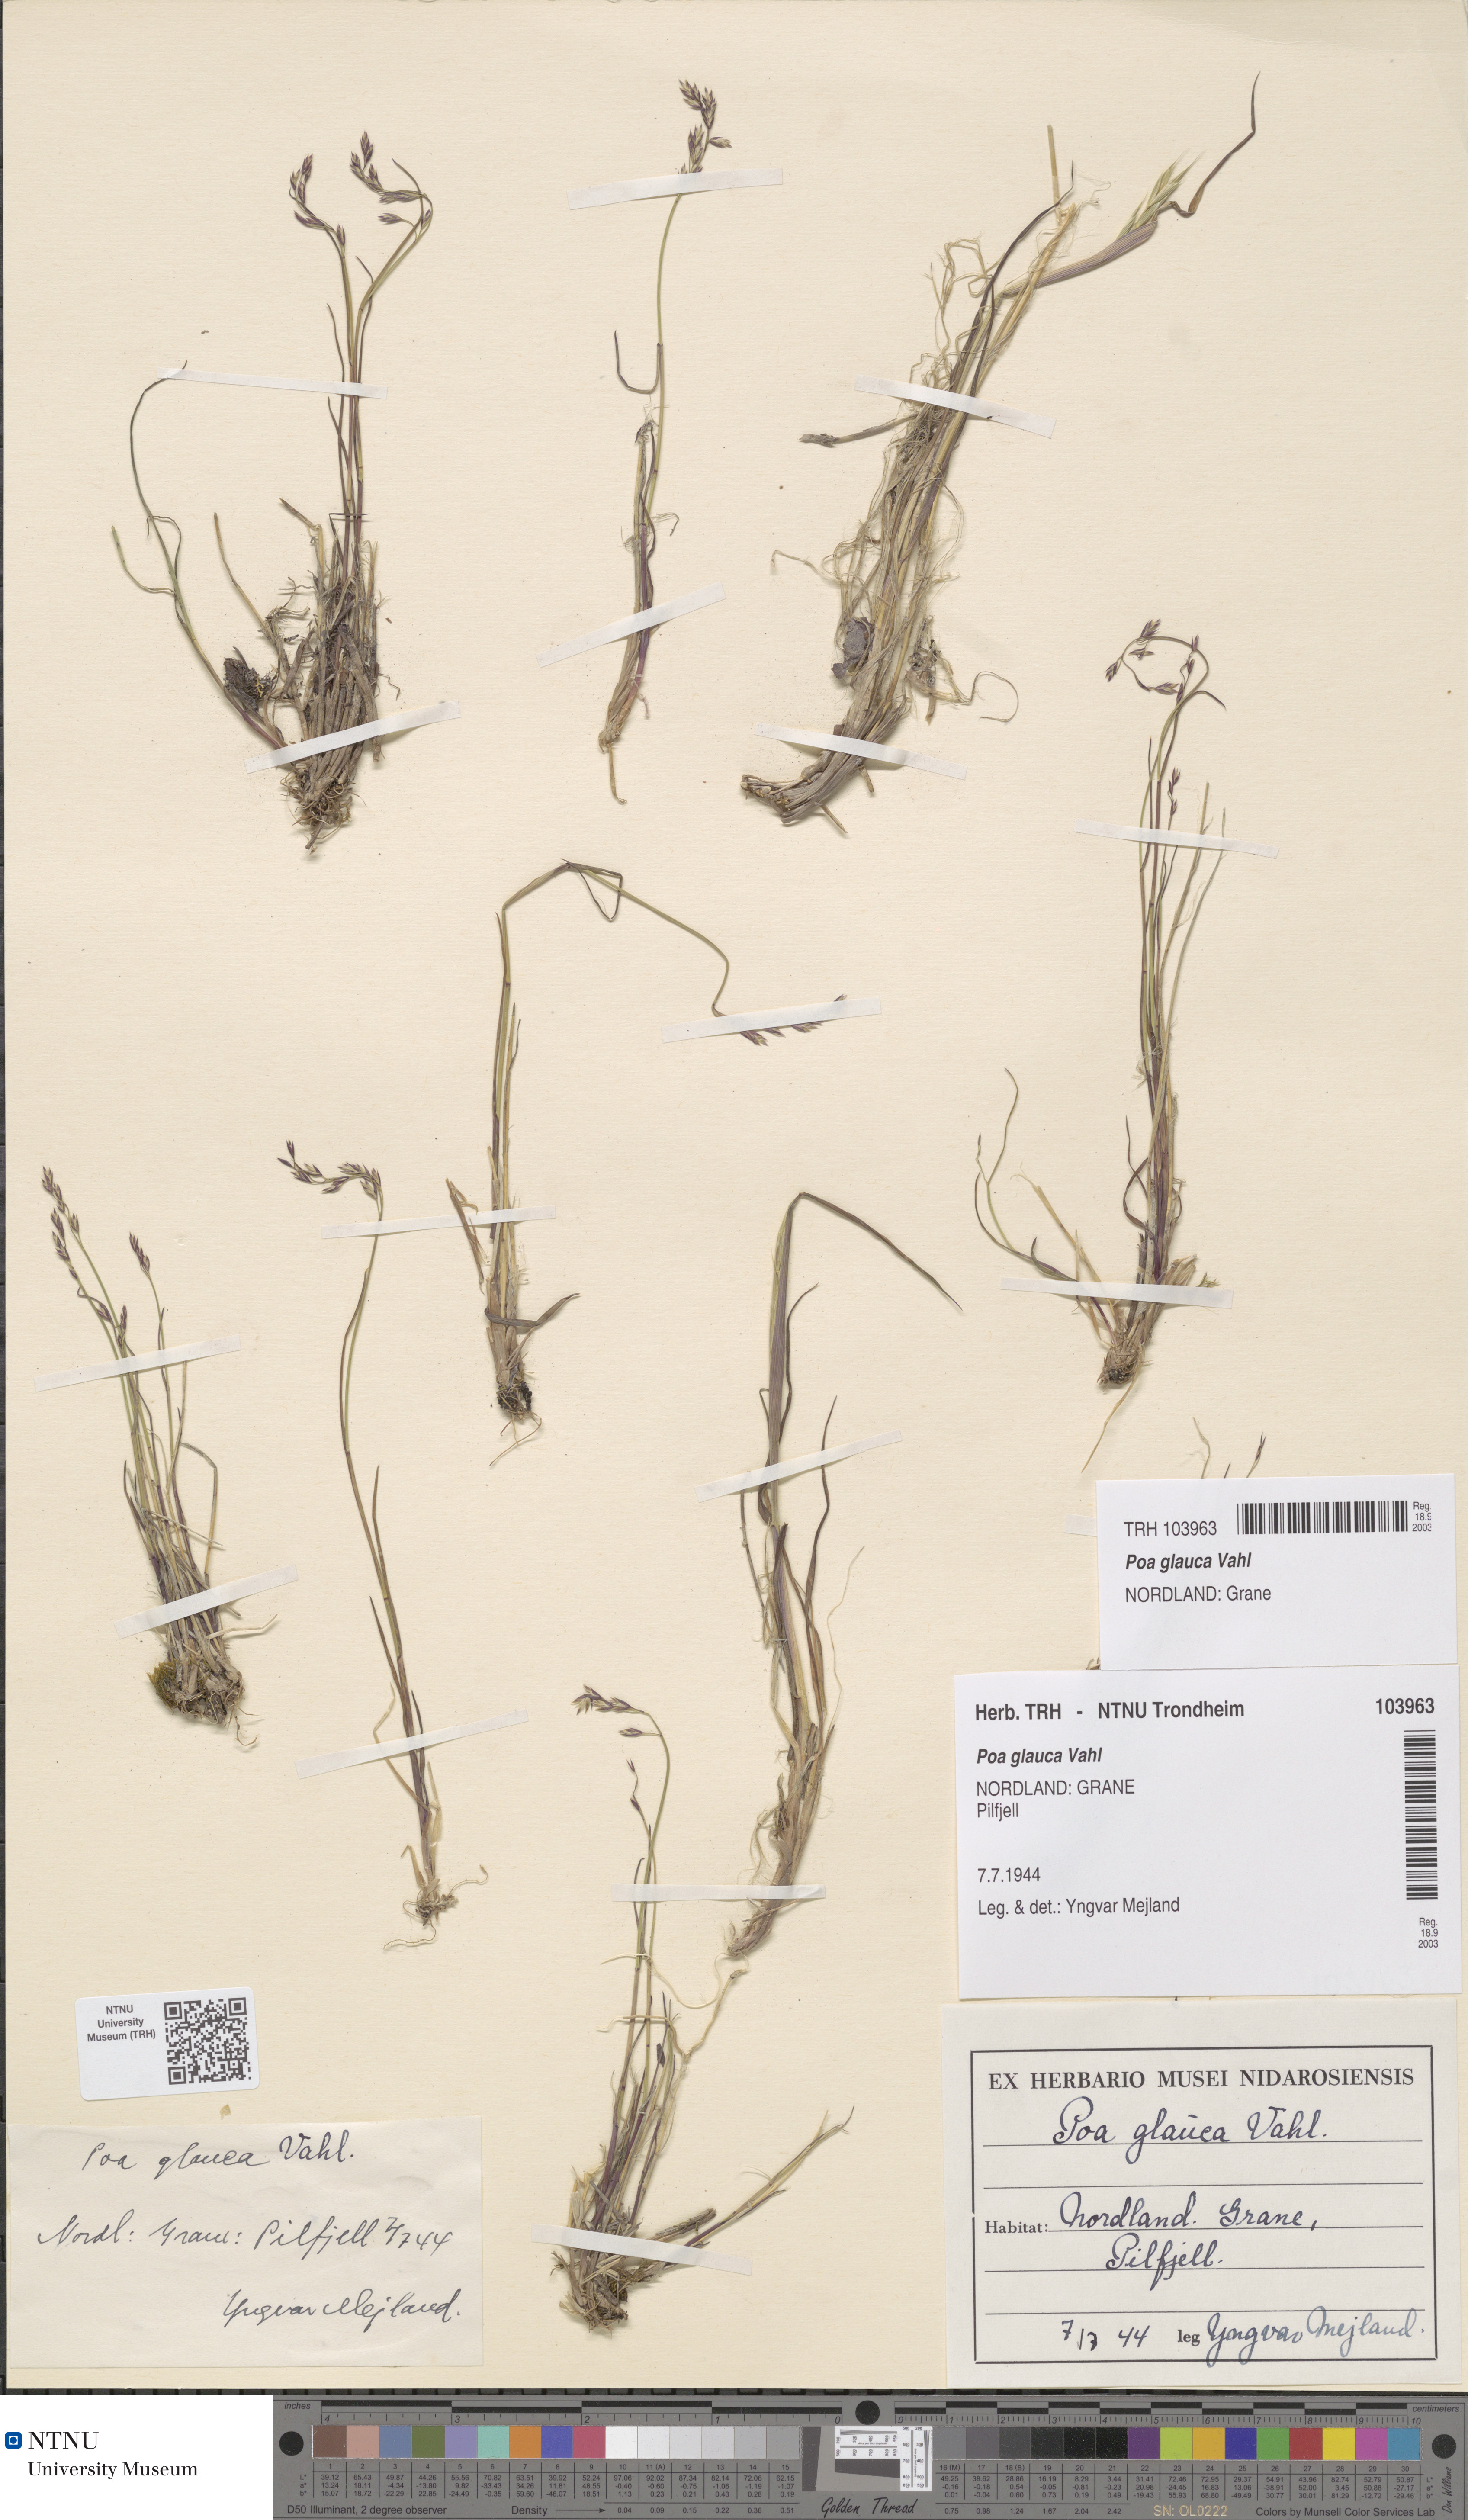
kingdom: Plantae
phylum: Tracheophyta
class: Liliopsida
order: Poales
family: Poaceae
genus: Poa
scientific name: Poa glauca
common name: Glaucous bluegrass
